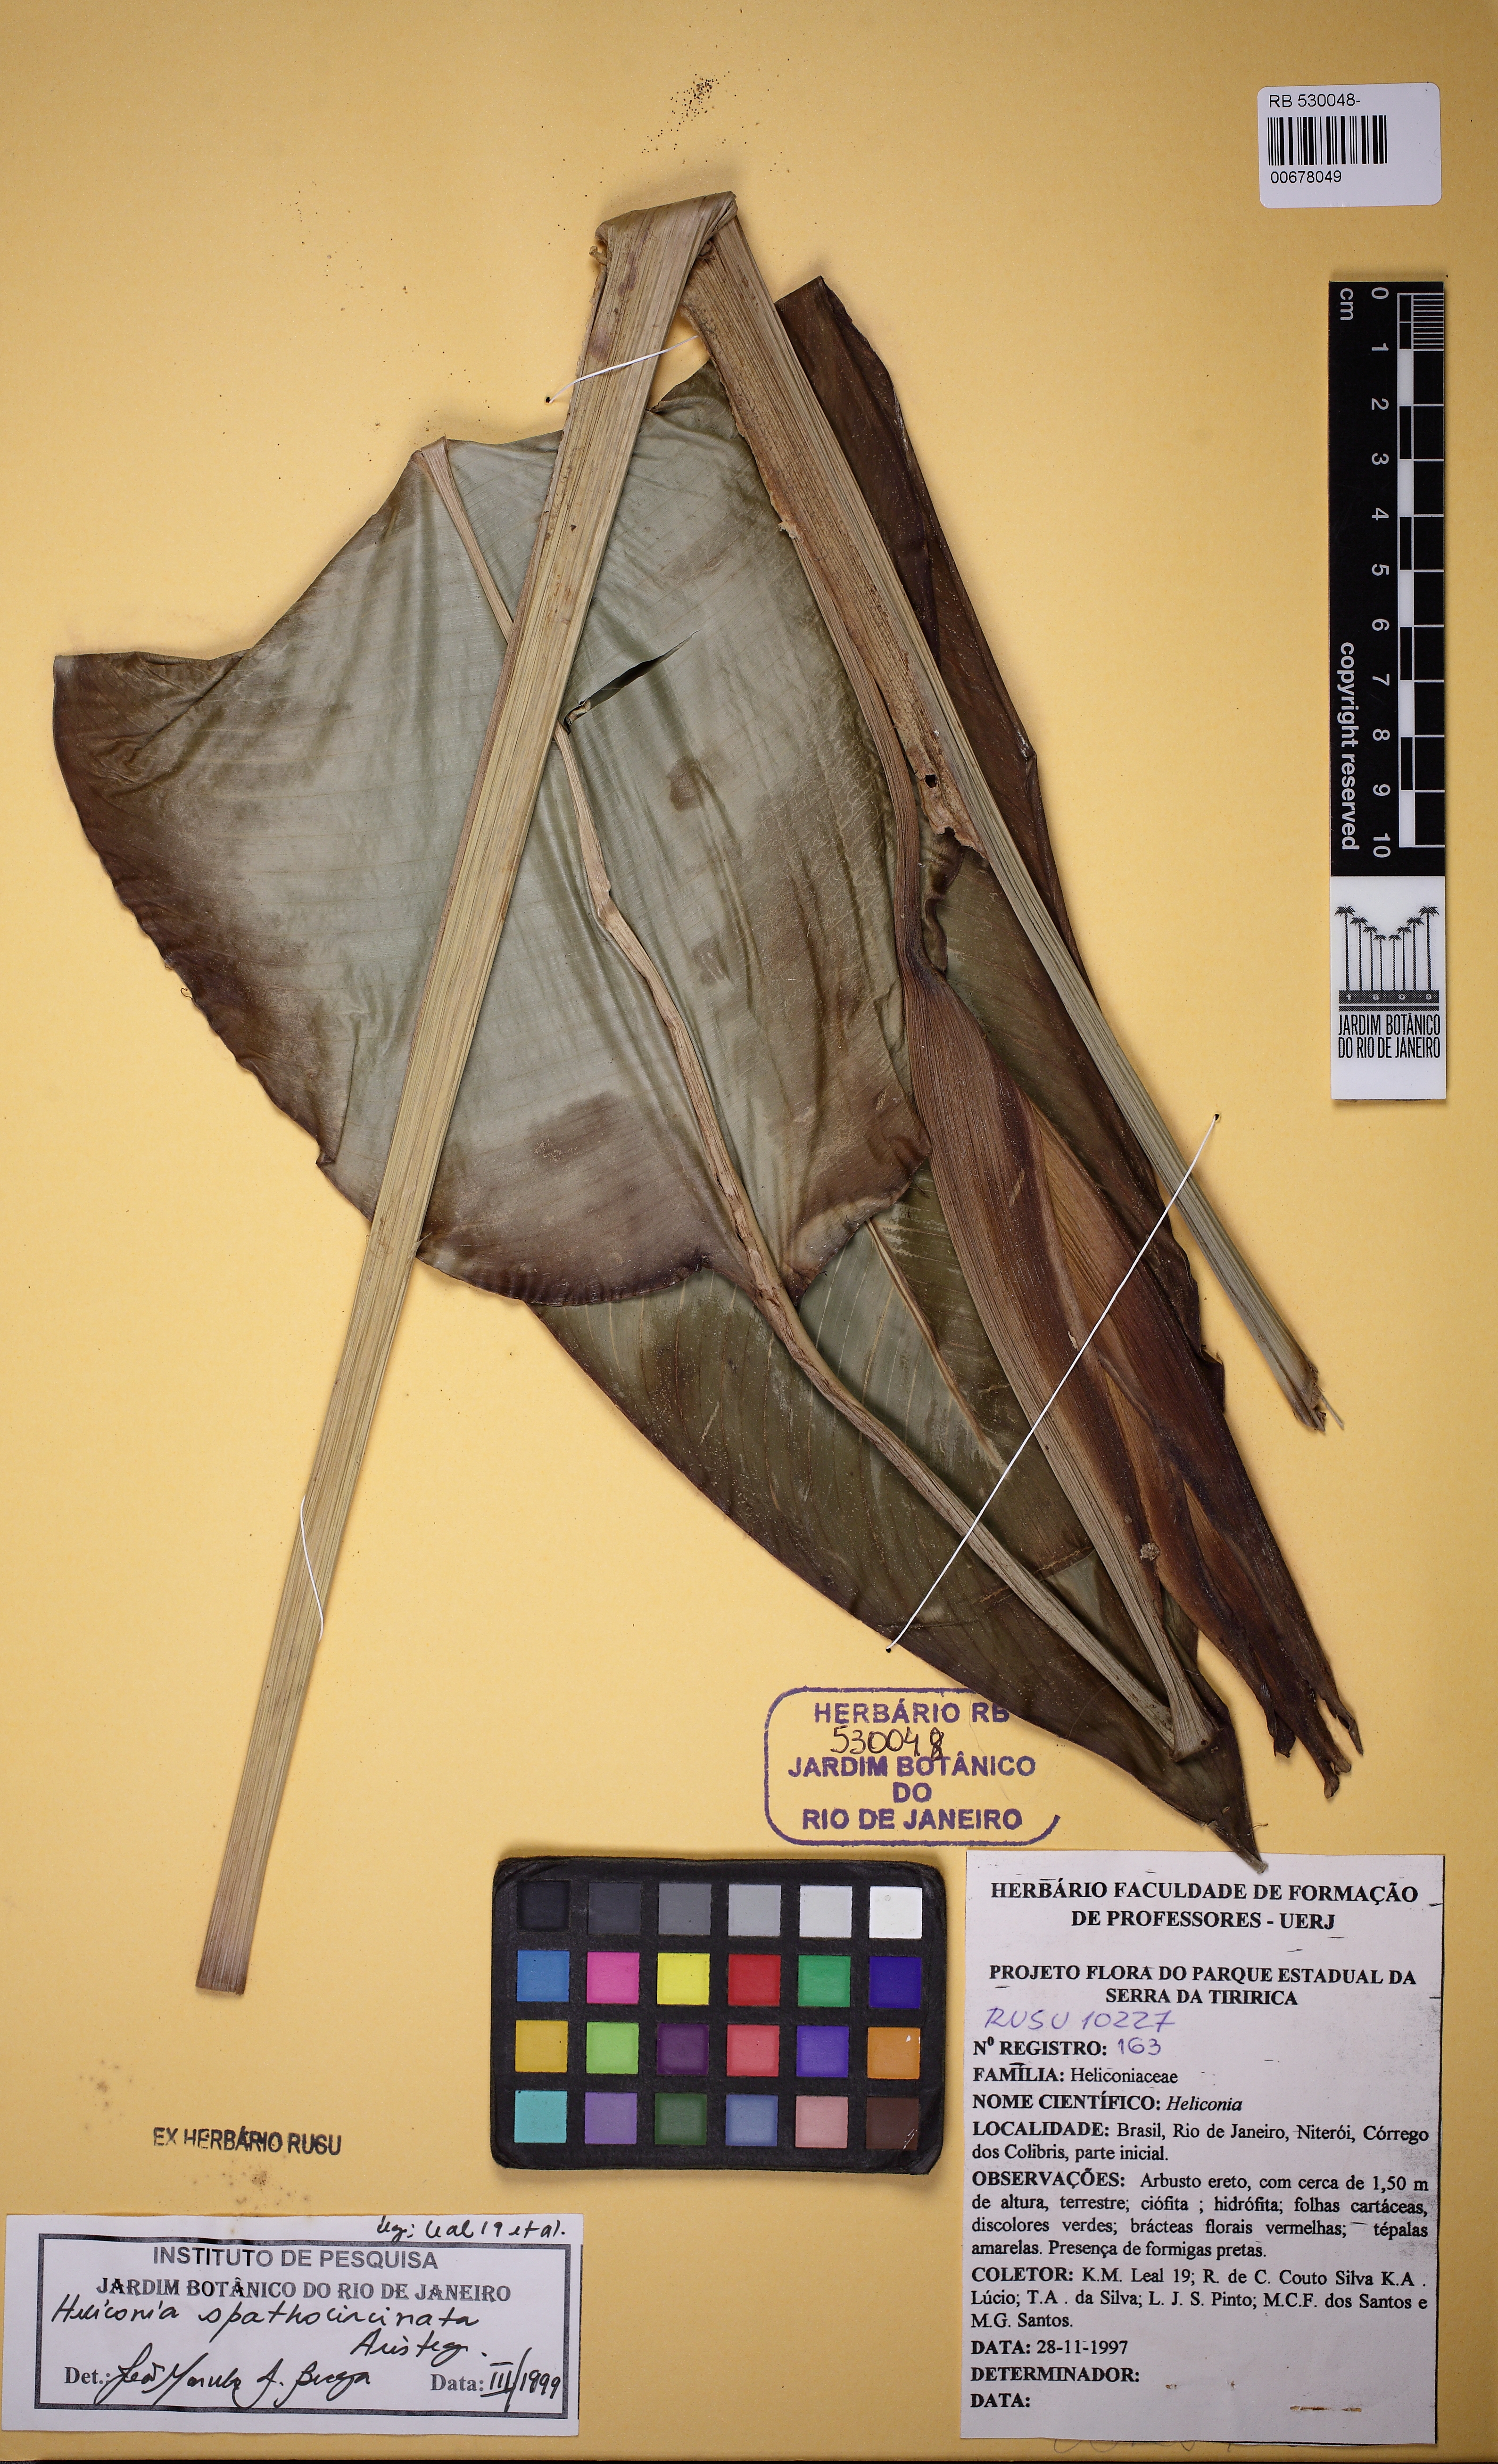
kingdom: Plantae
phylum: Tracheophyta
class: Liliopsida
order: Zingiberales
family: Heliconiaceae
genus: Heliconia
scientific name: Heliconia spathocircinata
